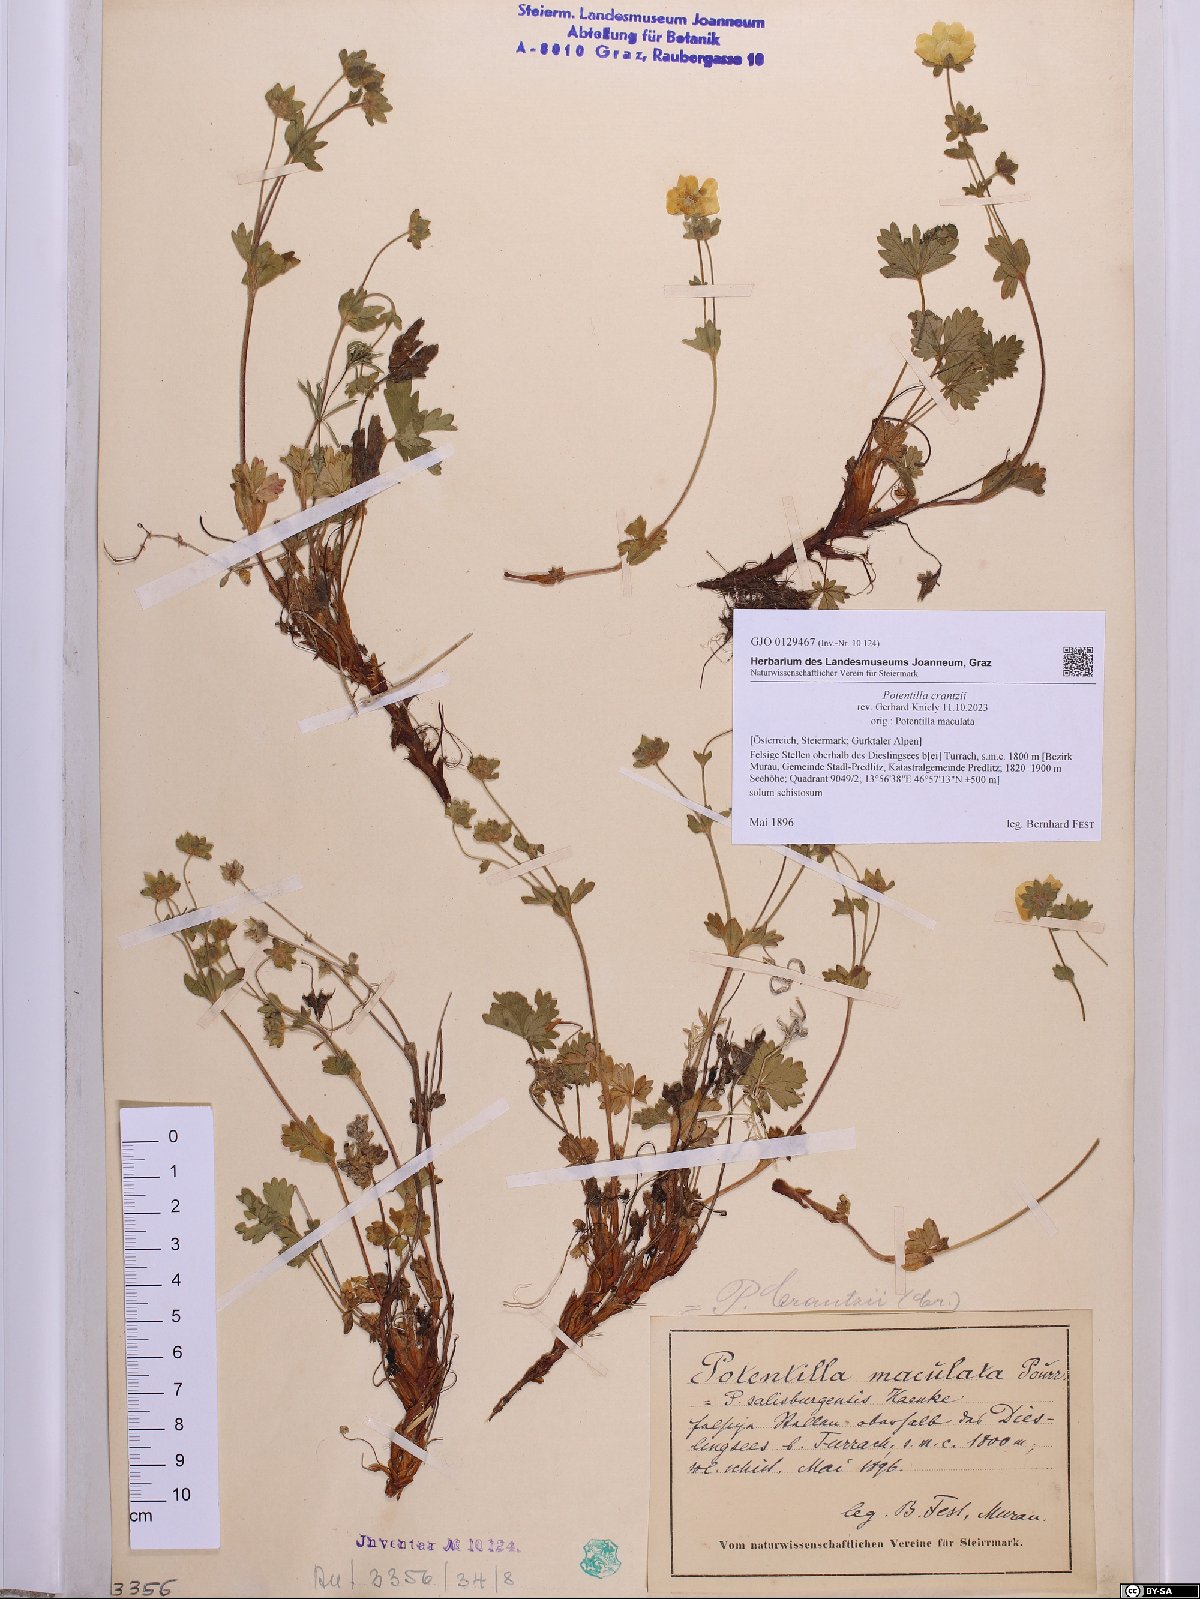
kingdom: Plantae
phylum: Tracheophyta
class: Magnoliopsida
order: Rosales
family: Rosaceae
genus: Potentilla
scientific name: Potentilla crantzii
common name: Alpine cinquefoil
